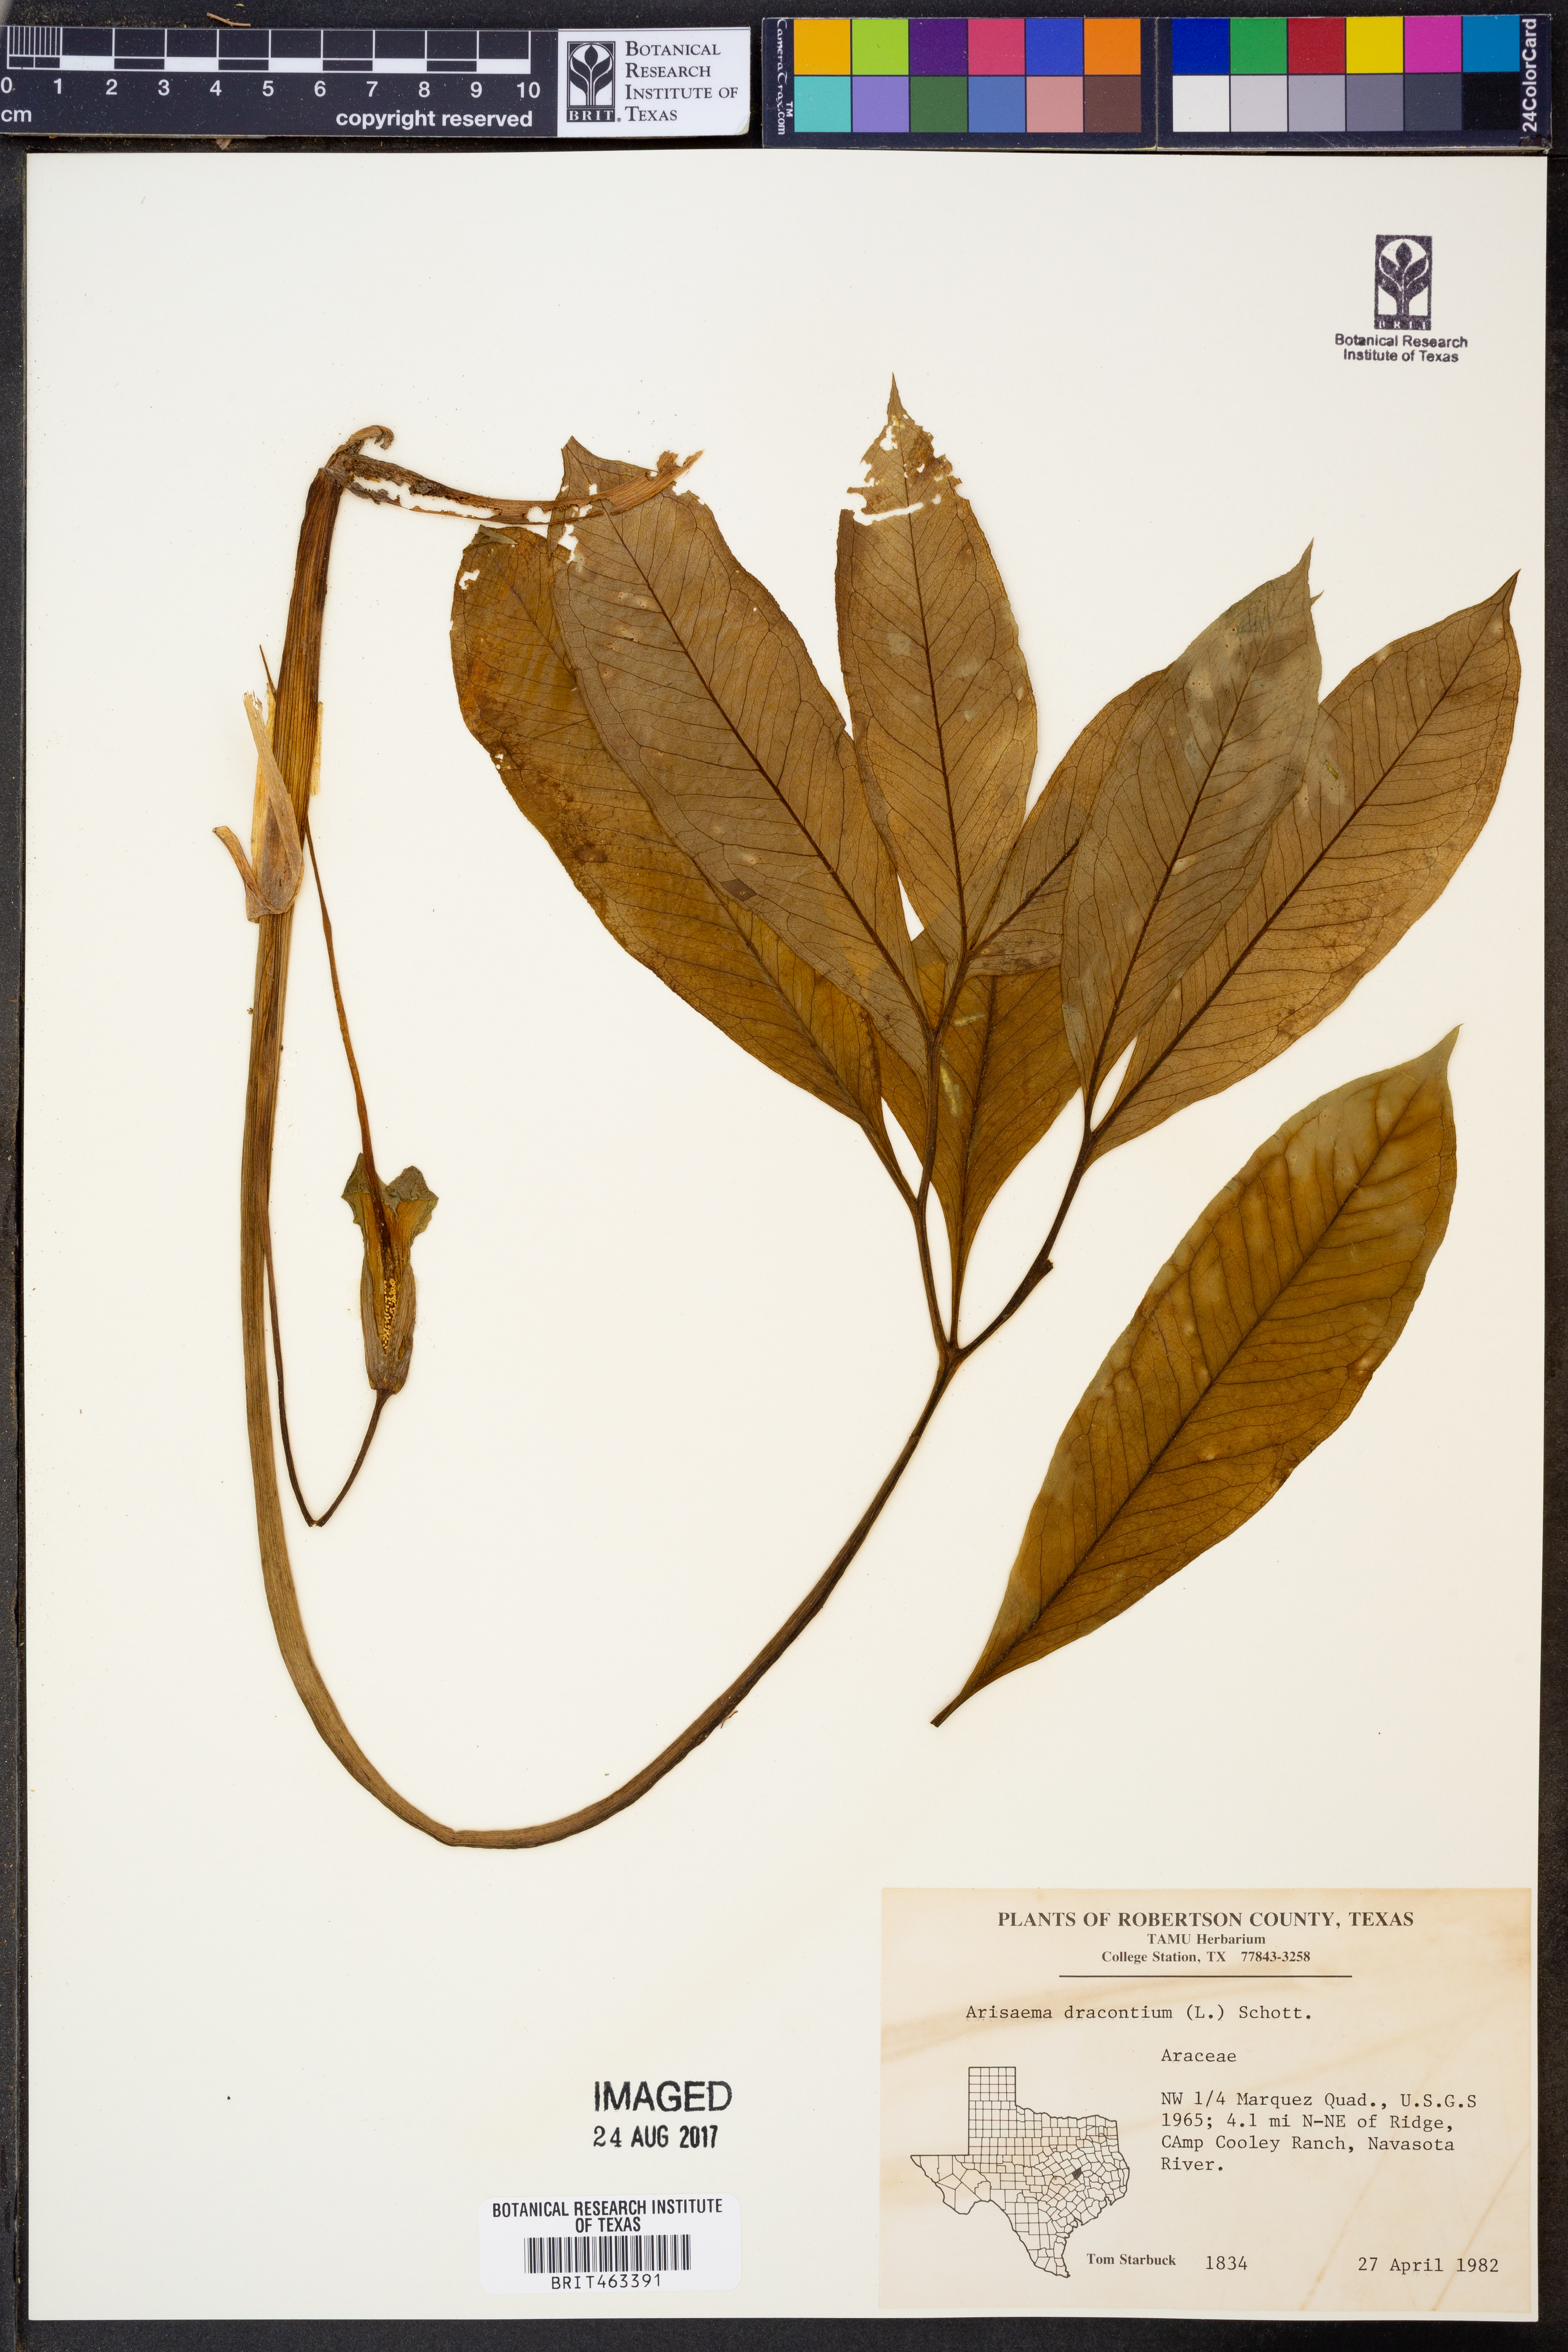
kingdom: Plantae
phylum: Tracheophyta
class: Liliopsida
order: Alismatales
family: Araceae
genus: Arisaema
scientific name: Arisaema dracontium
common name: Dragon-arum
